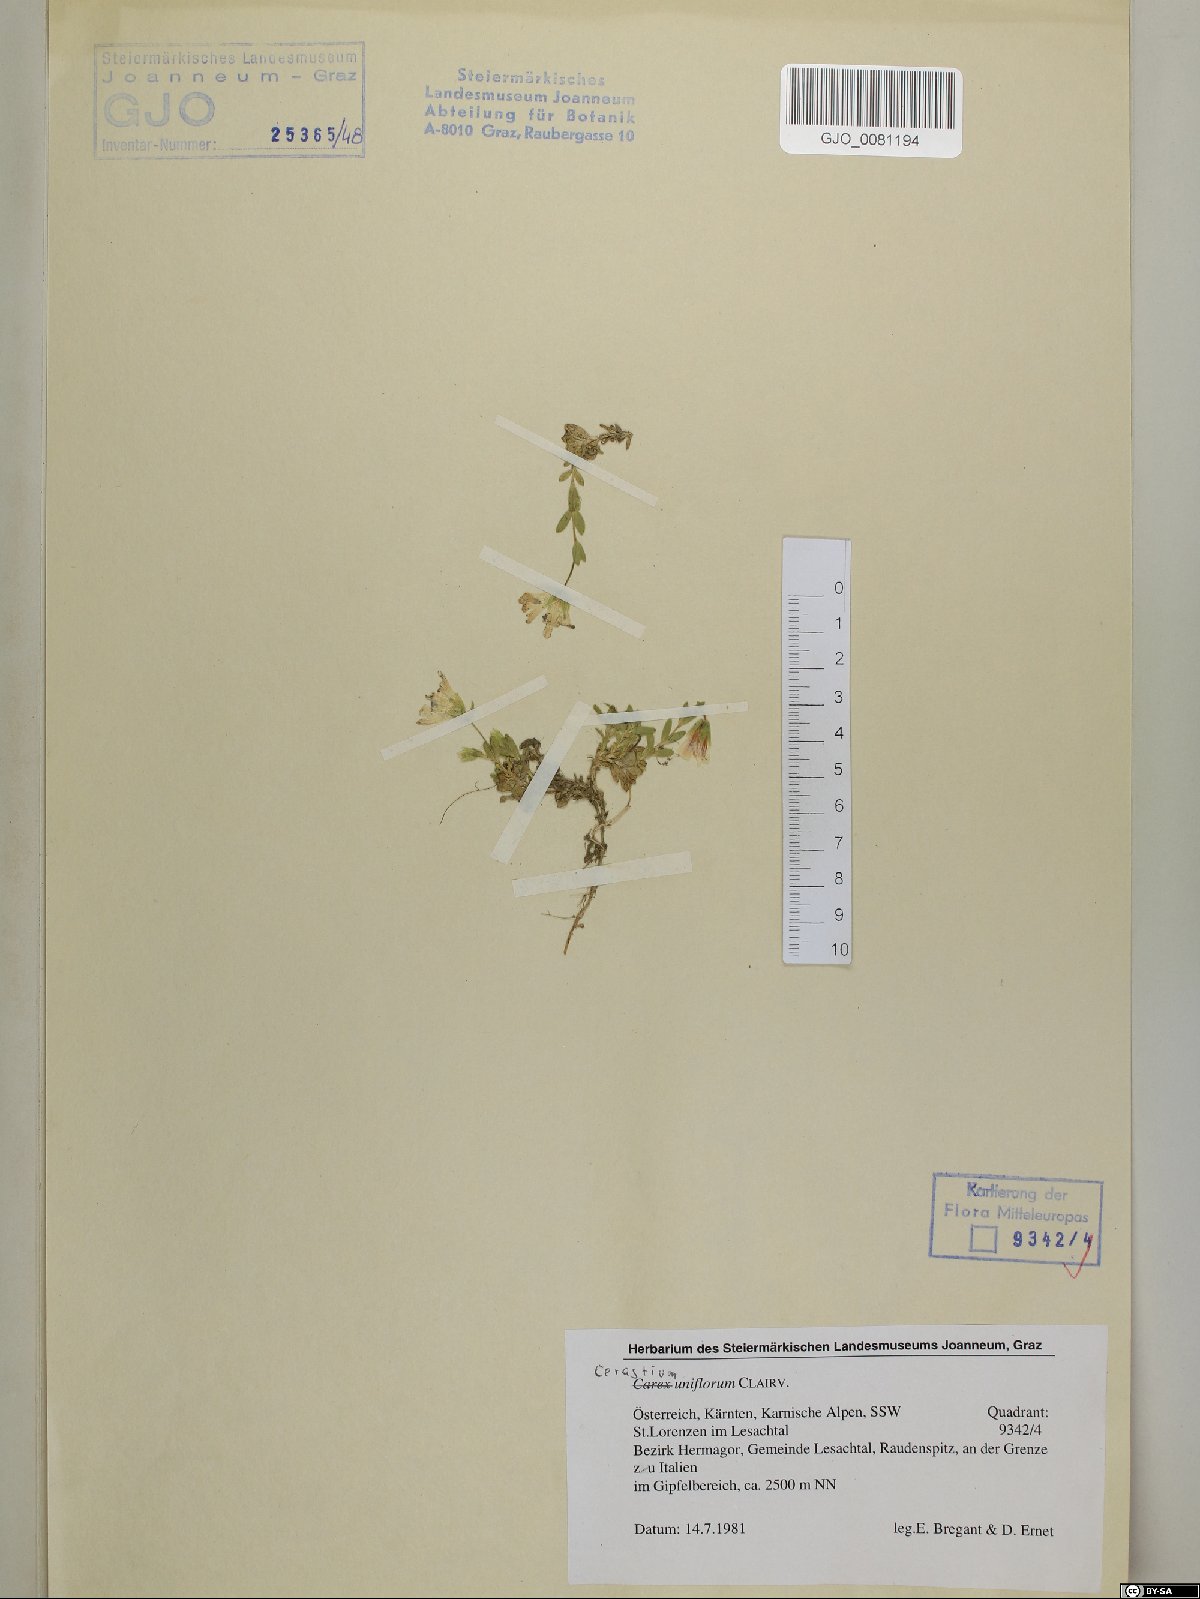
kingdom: Plantae
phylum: Tracheophyta
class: Magnoliopsida
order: Caryophyllales
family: Caryophyllaceae
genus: Cerastium
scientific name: Cerastium uniflorum
